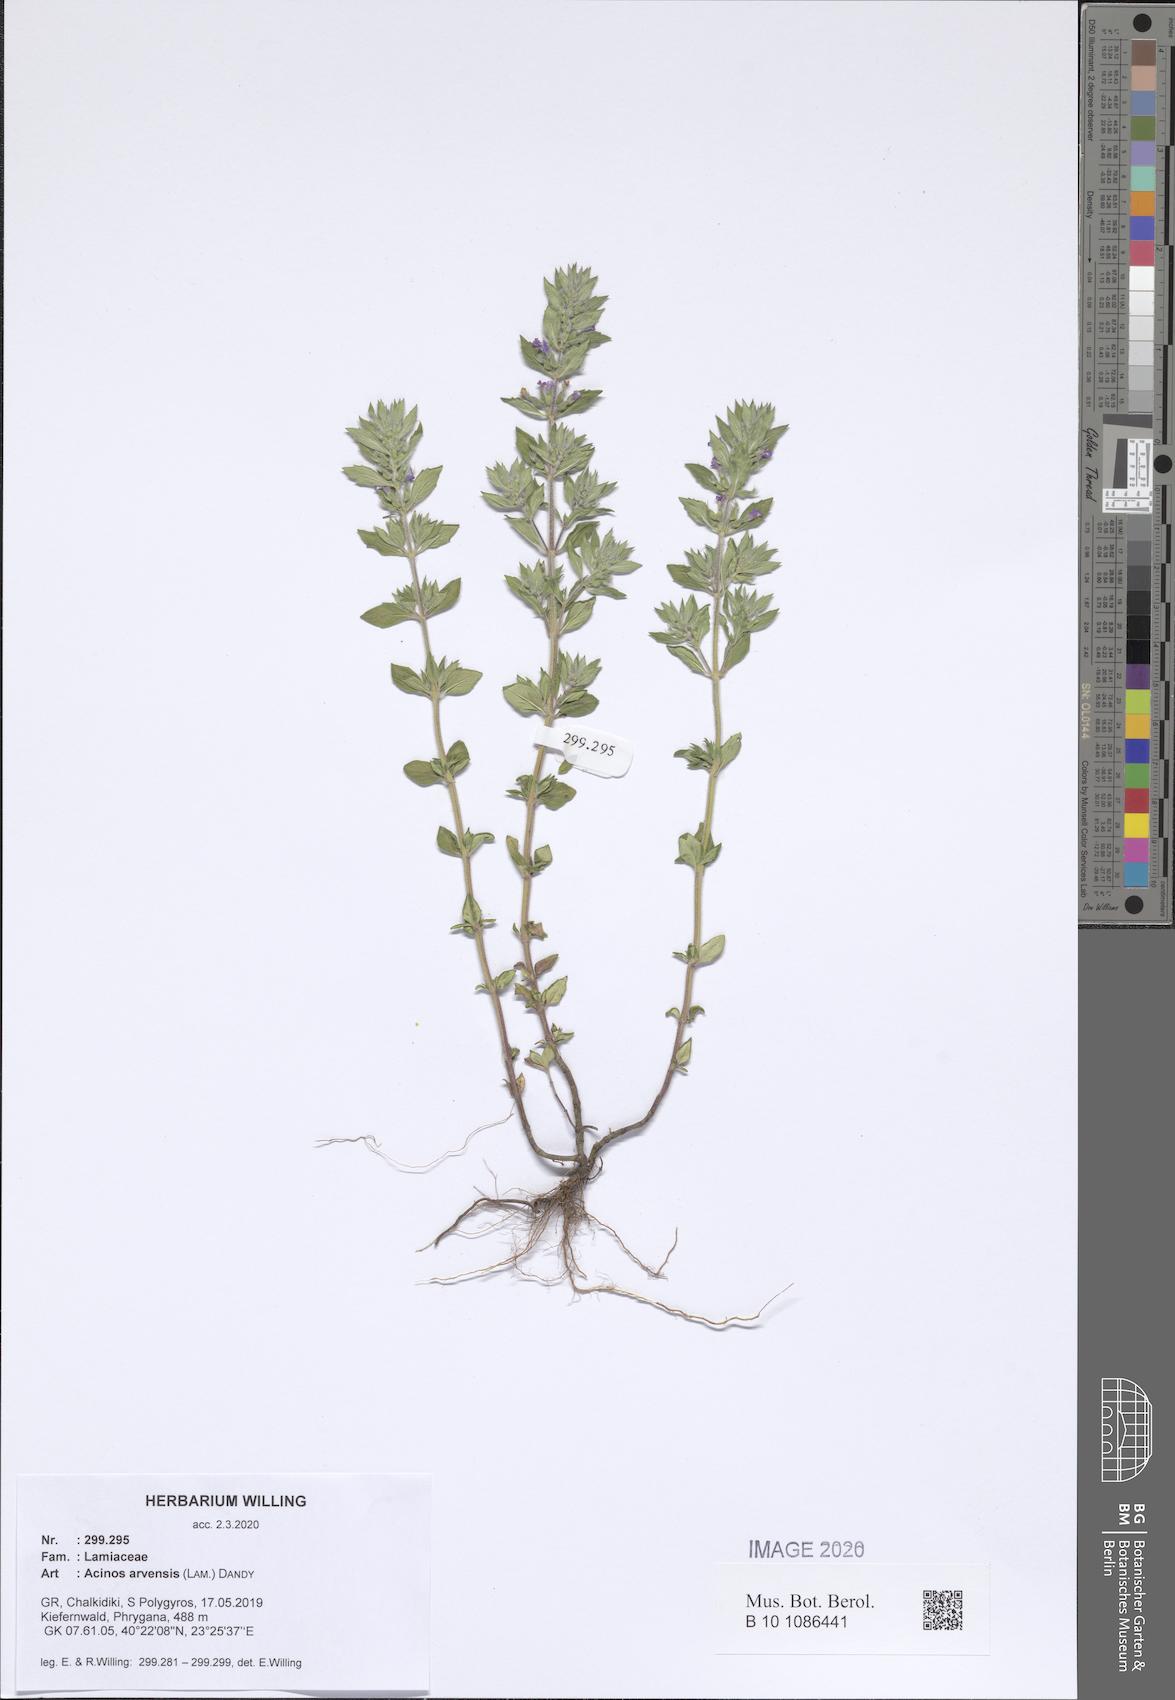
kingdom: Plantae
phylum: Tracheophyta
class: Magnoliopsida
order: Lamiales
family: Lamiaceae
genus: Clinopodium
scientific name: Clinopodium acinos
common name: Basil thyme
